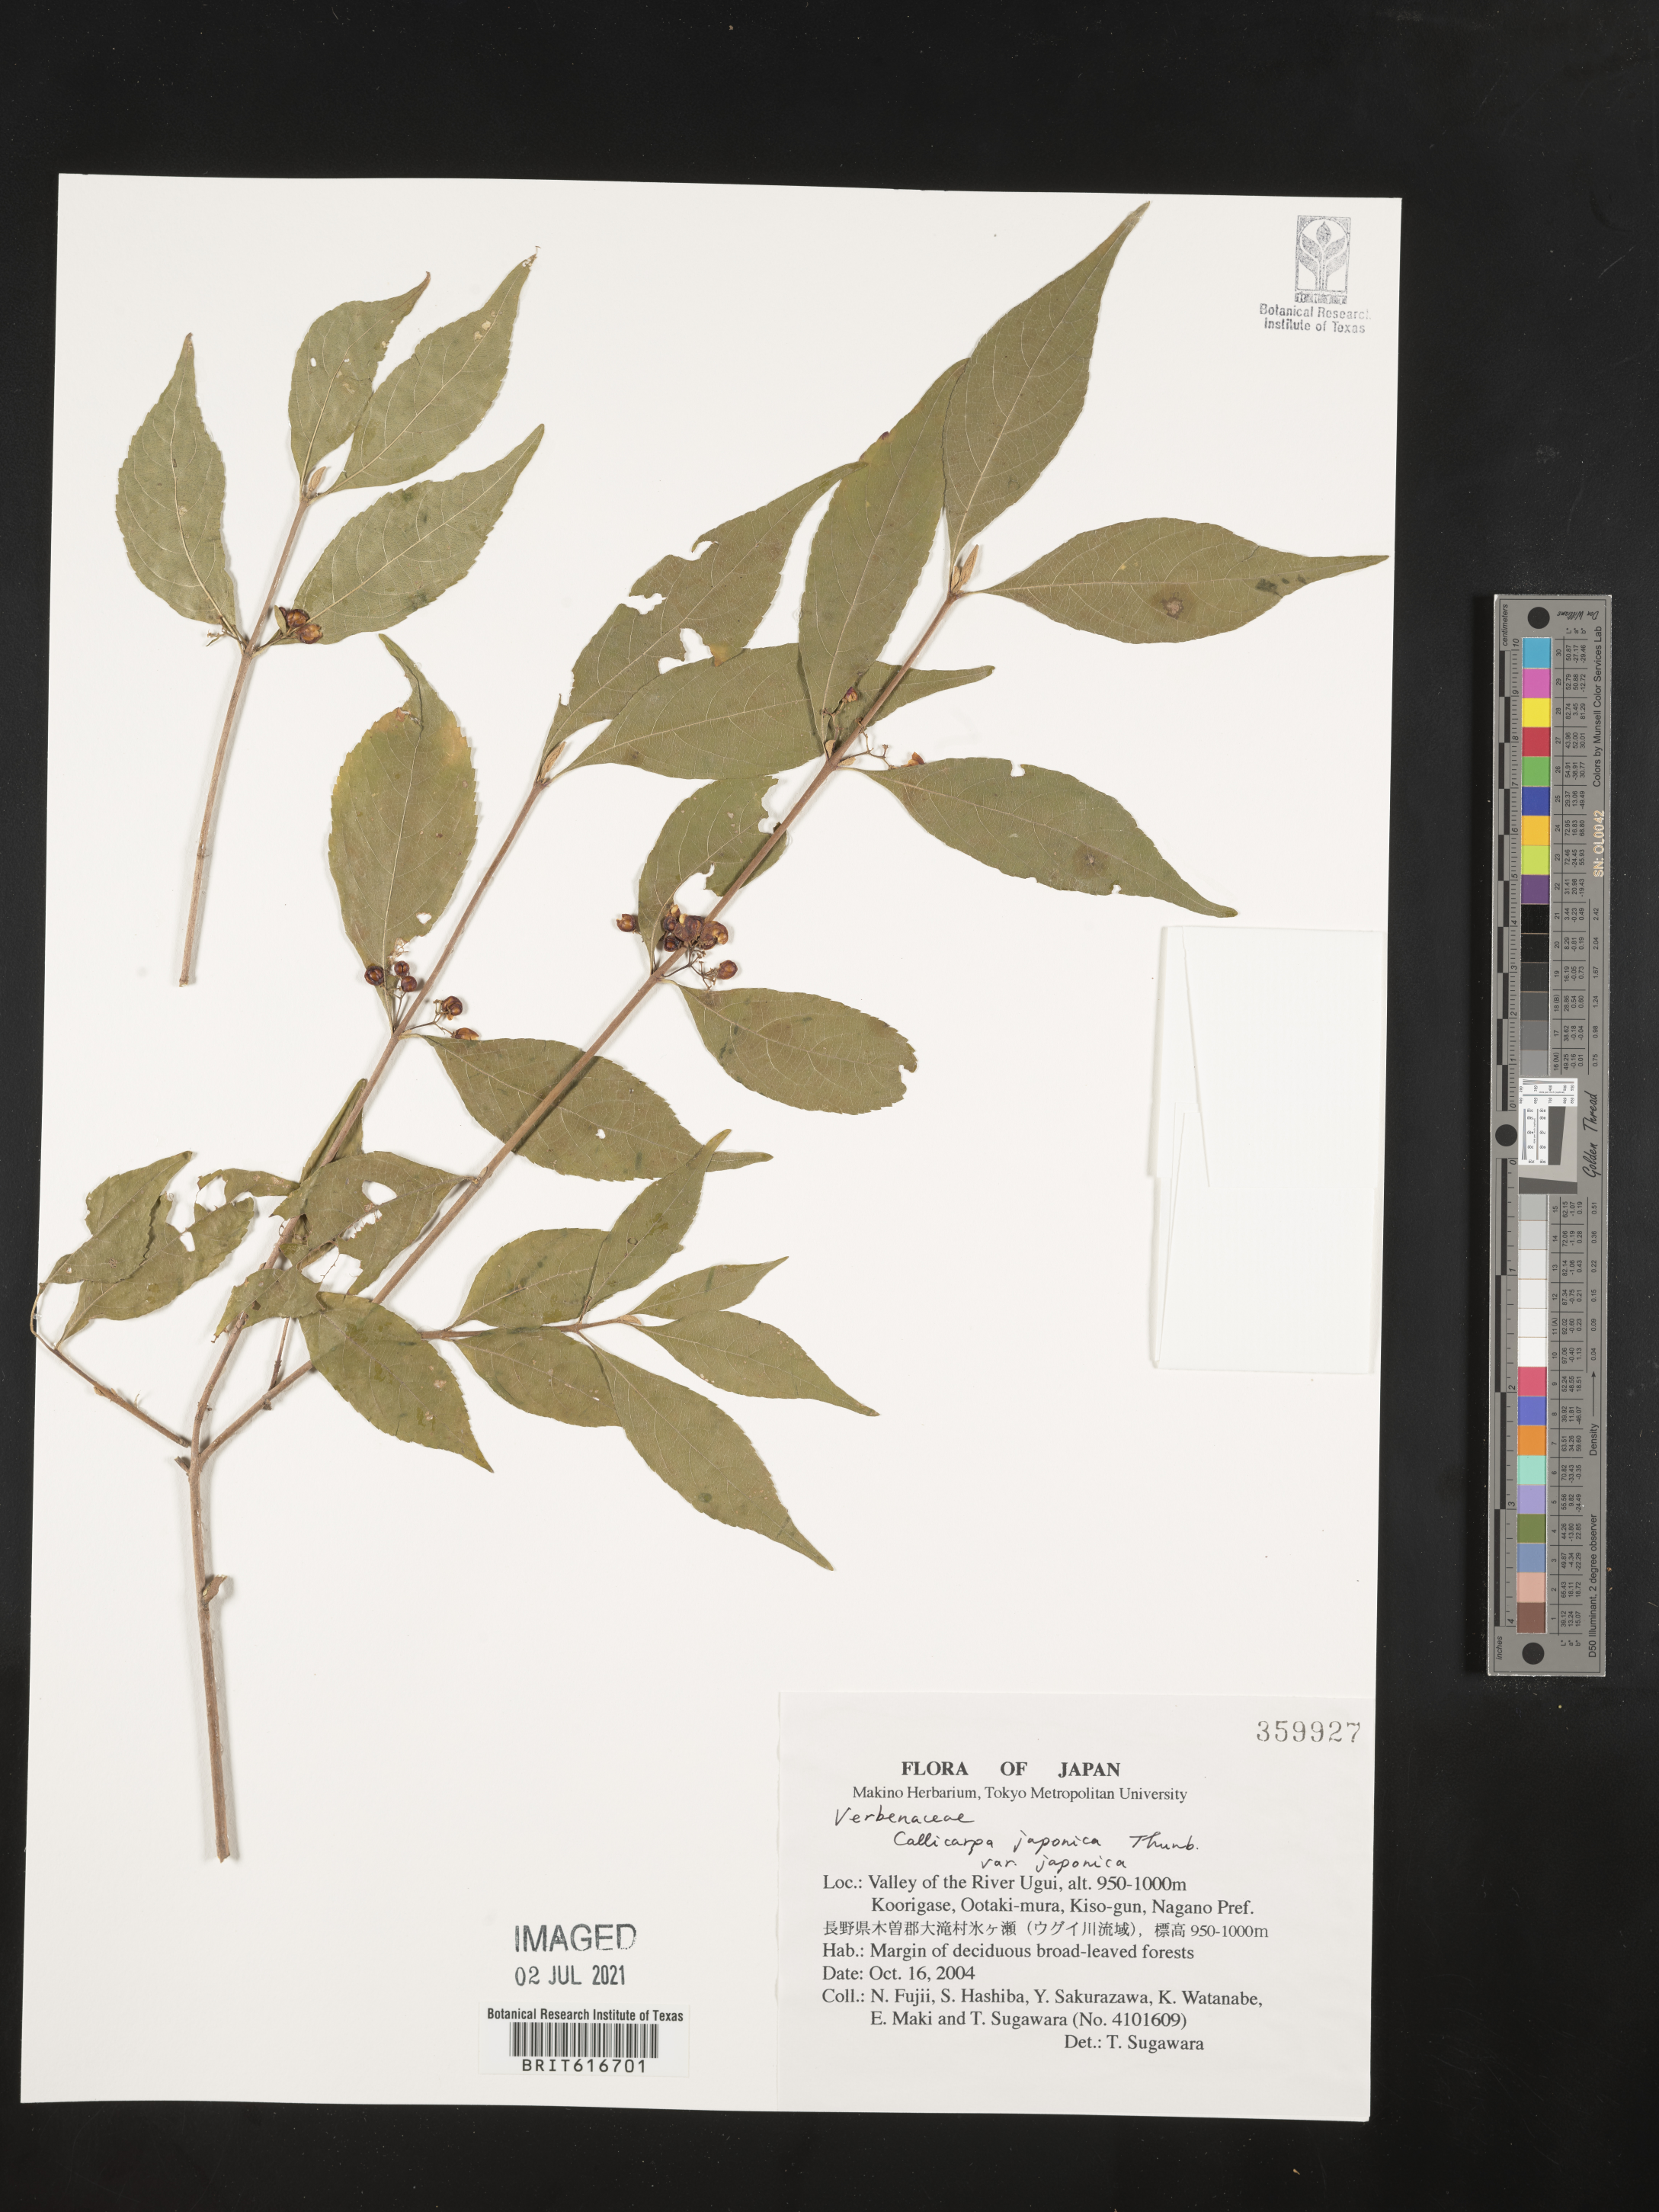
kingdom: Plantae
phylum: Tracheophyta
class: Magnoliopsida
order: Lamiales
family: Lamiaceae
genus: Callicarpa
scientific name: Callicarpa japonica
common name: Japanese beauty-berry
